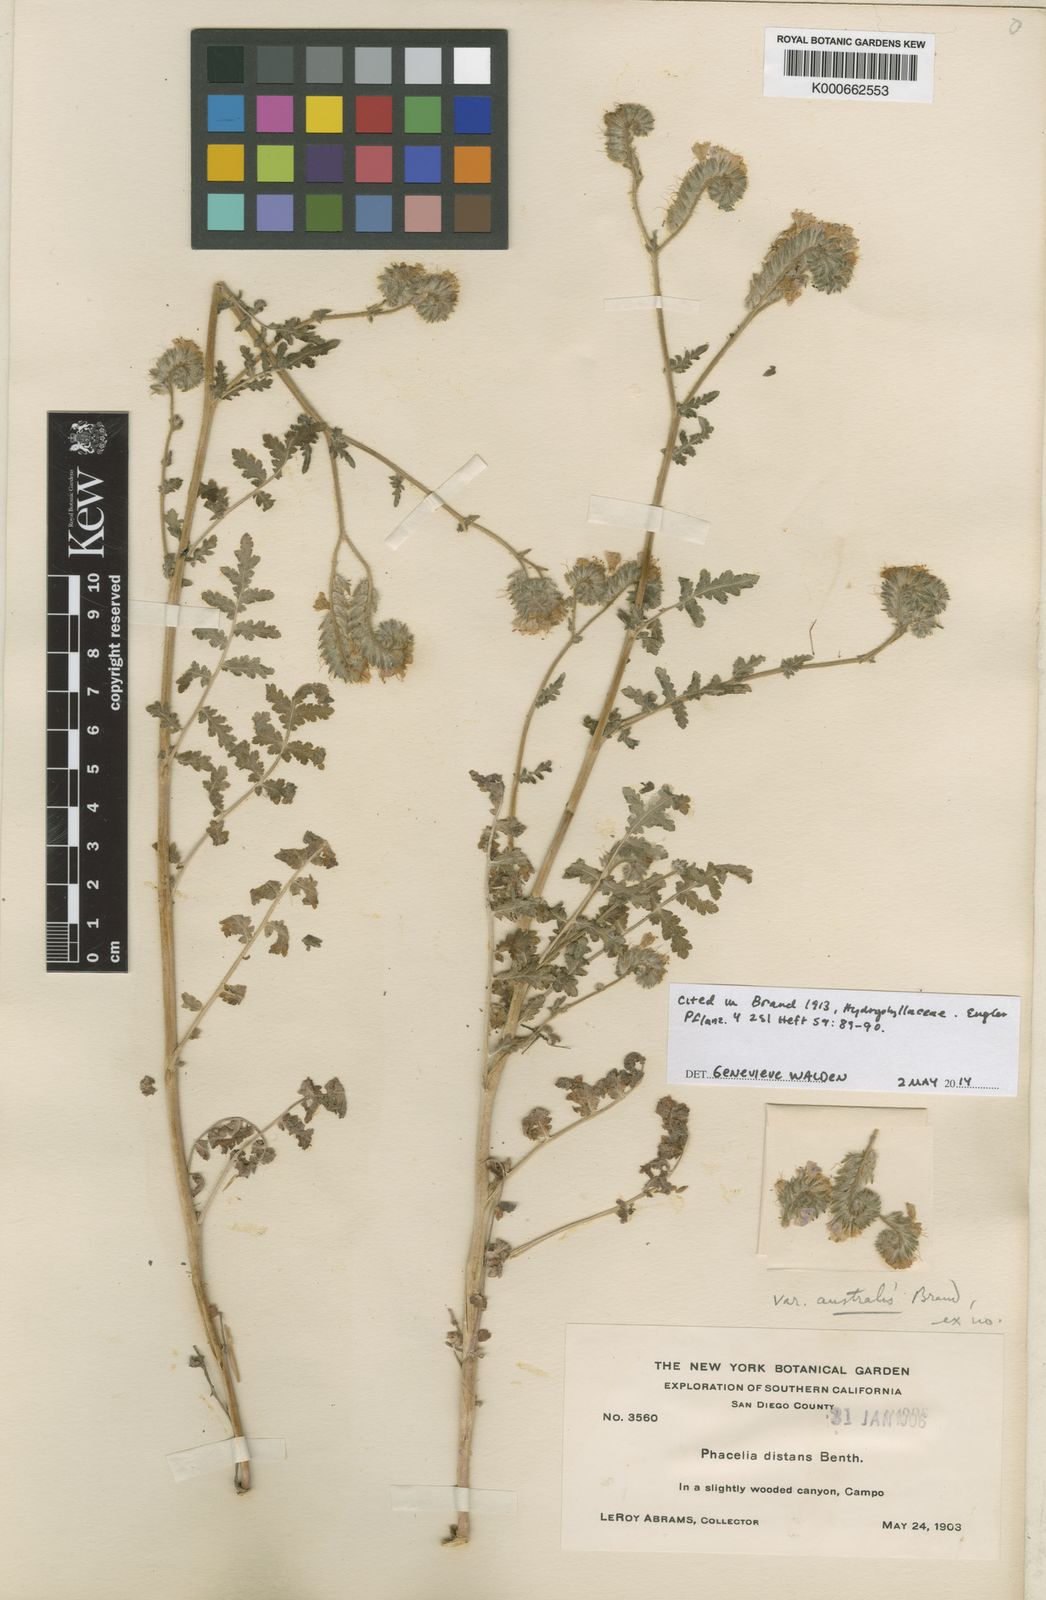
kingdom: Plantae
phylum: Tracheophyta
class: Magnoliopsida
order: Boraginales
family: Hydrophyllaceae
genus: Phacelia
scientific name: Phacelia distans
